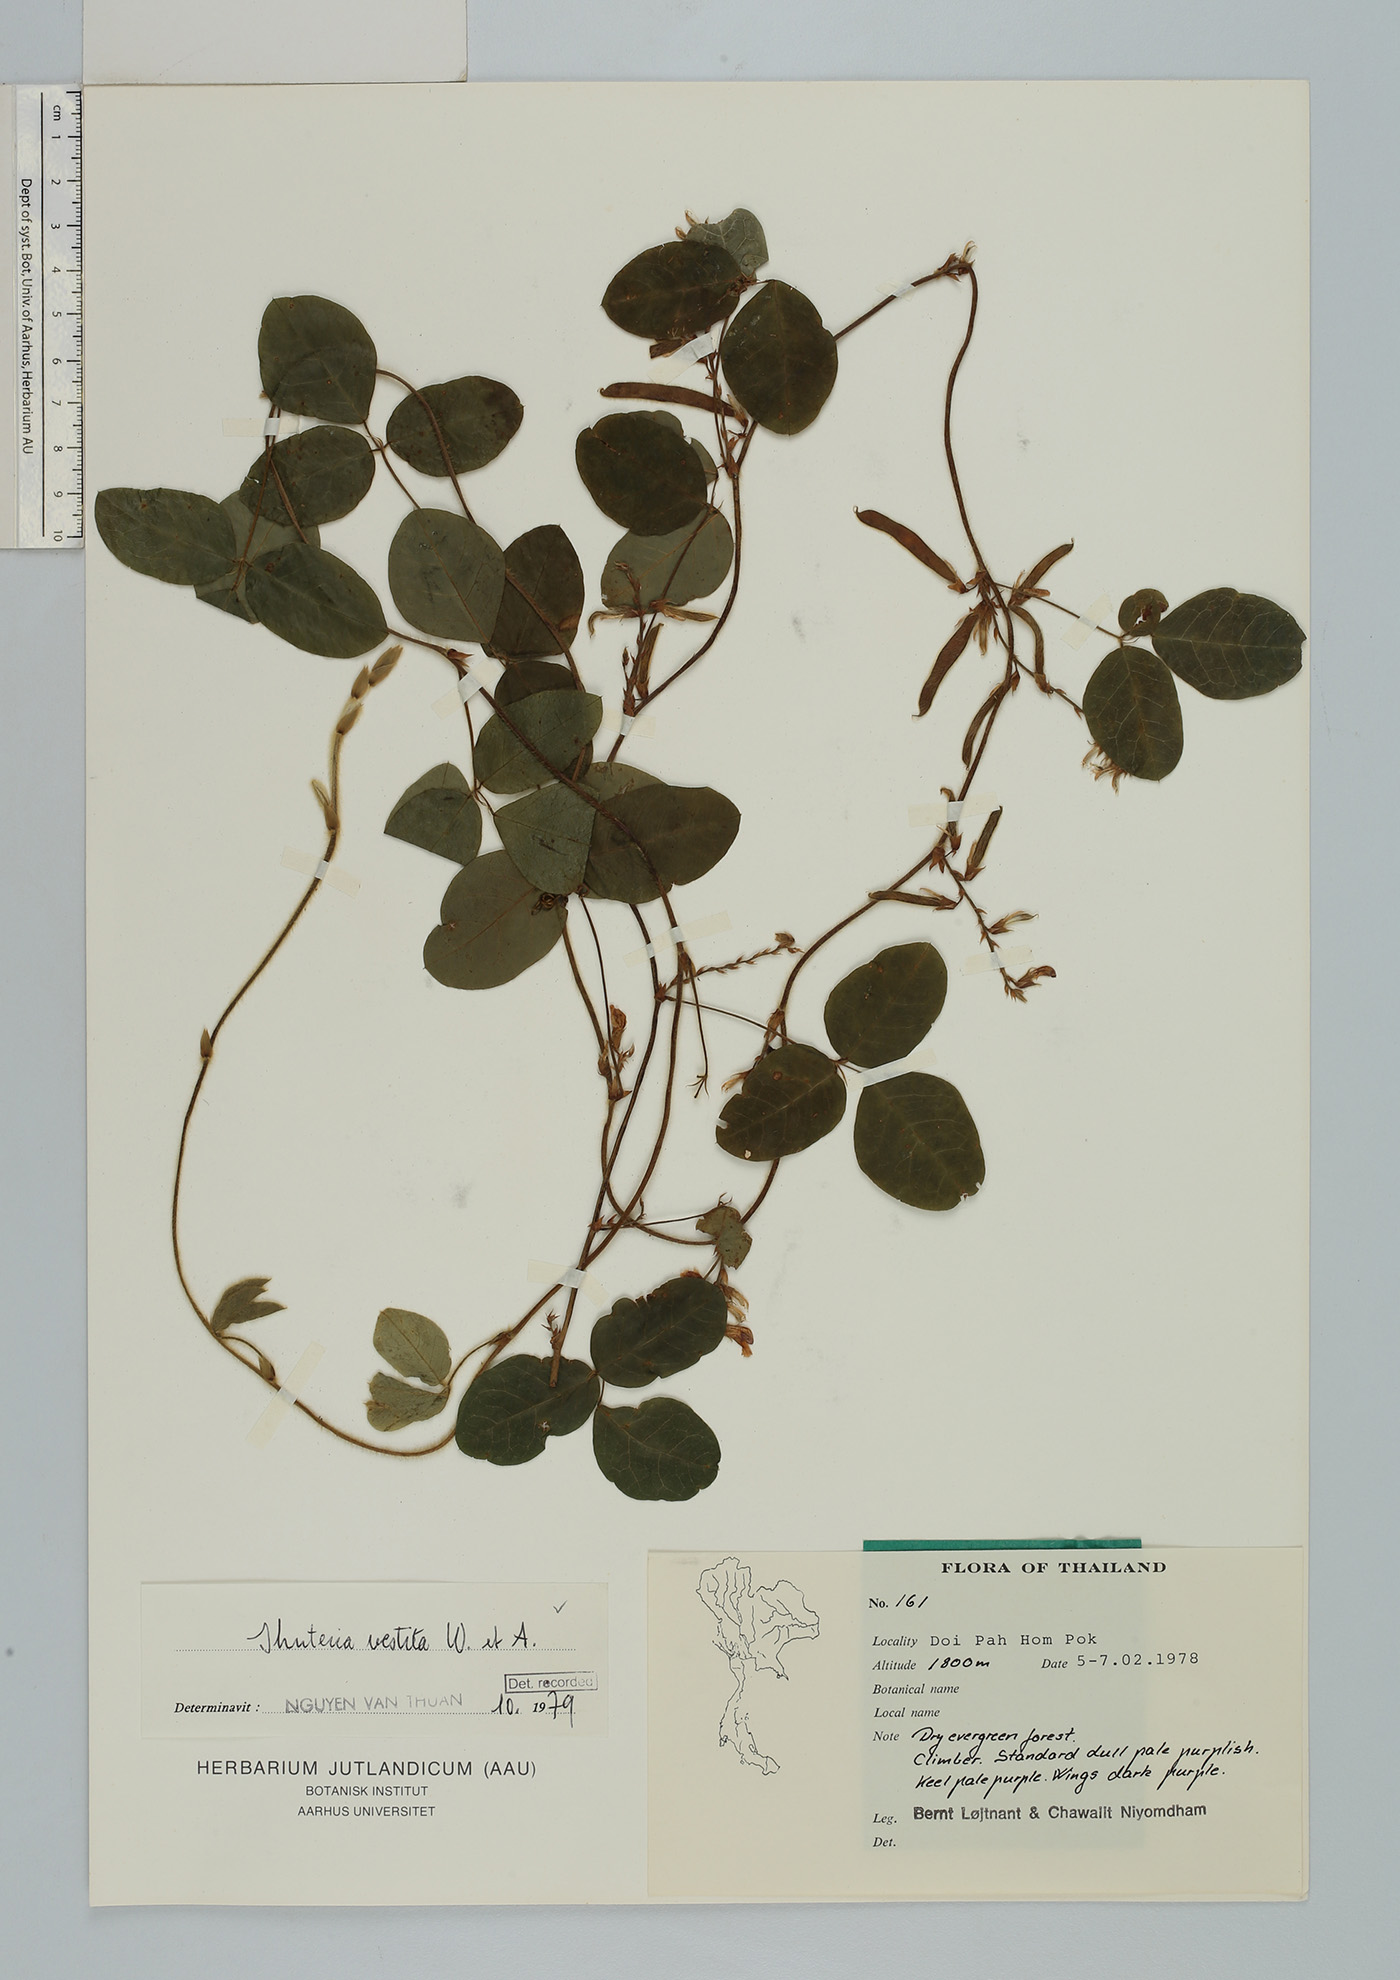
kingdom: Plantae
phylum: Tracheophyta
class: Magnoliopsida
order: Fabales
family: Fabaceae
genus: Shuteria
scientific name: Shuteria vestita
